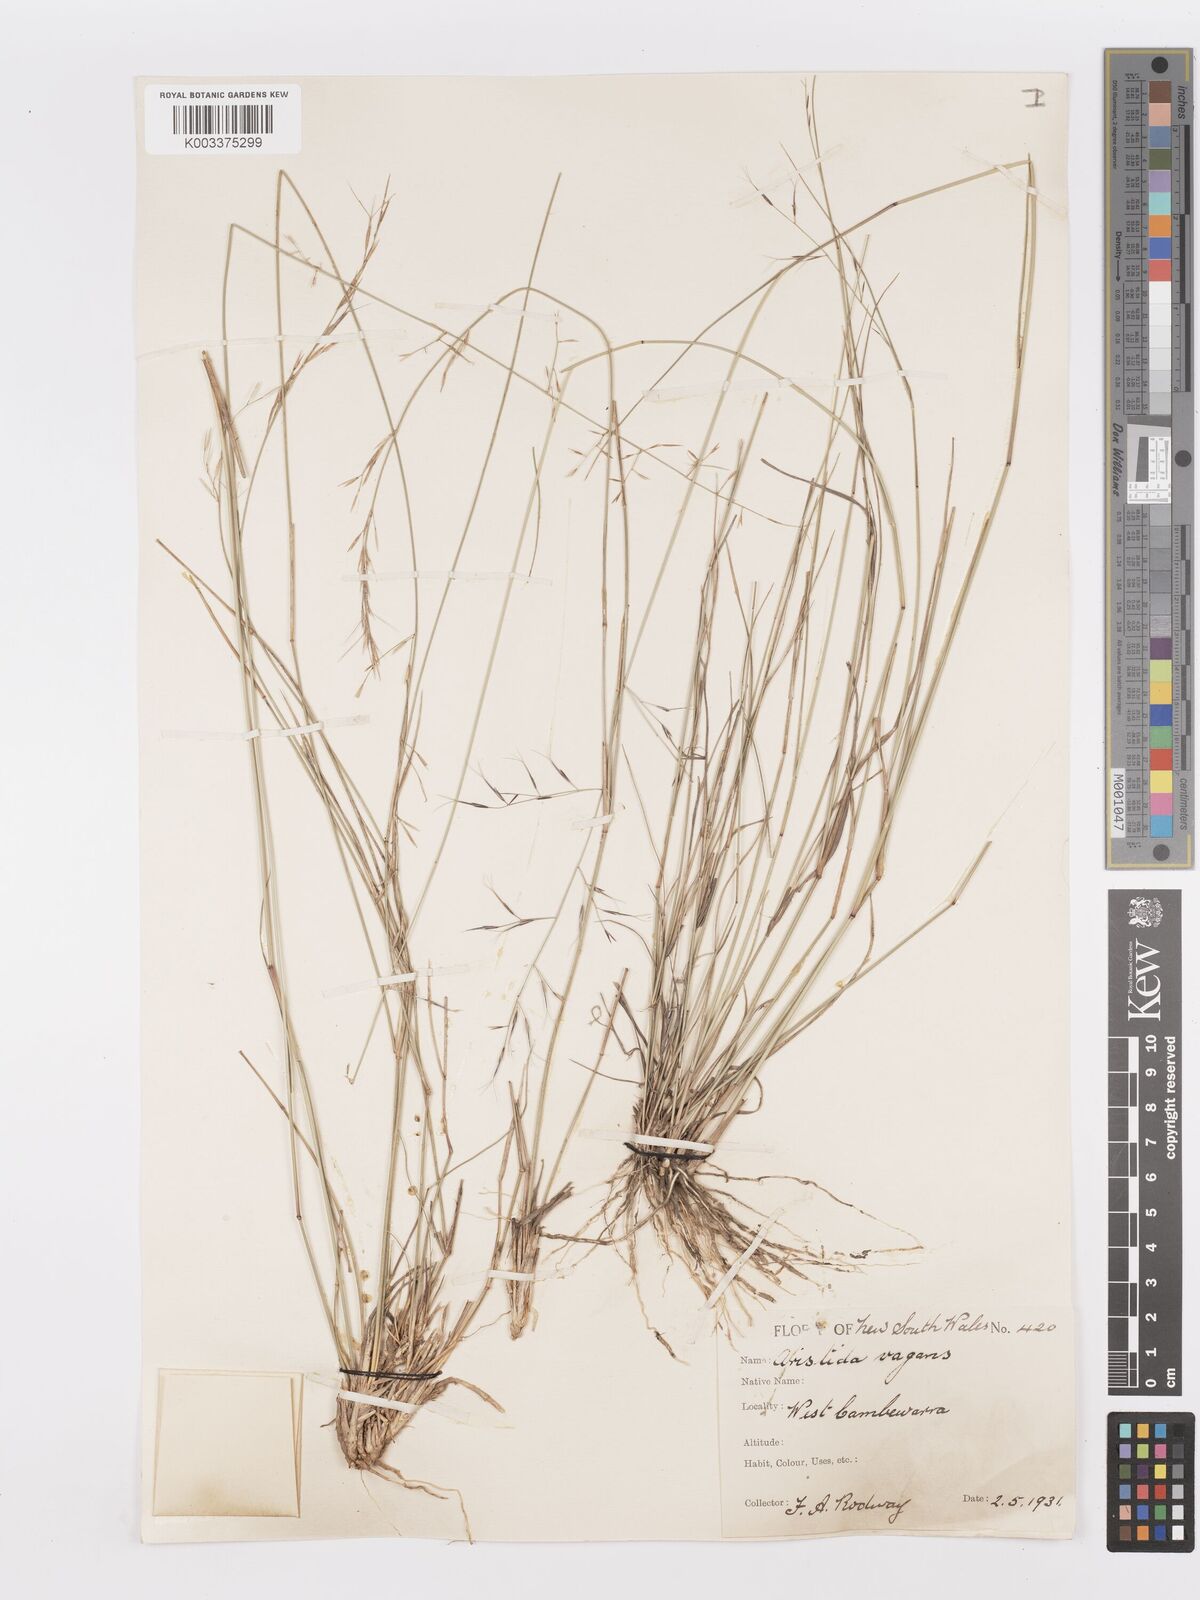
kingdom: Plantae
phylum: Tracheophyta
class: Liliopsida
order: Poales
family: Poaceae
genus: Aristida
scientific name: Aristida vagans
